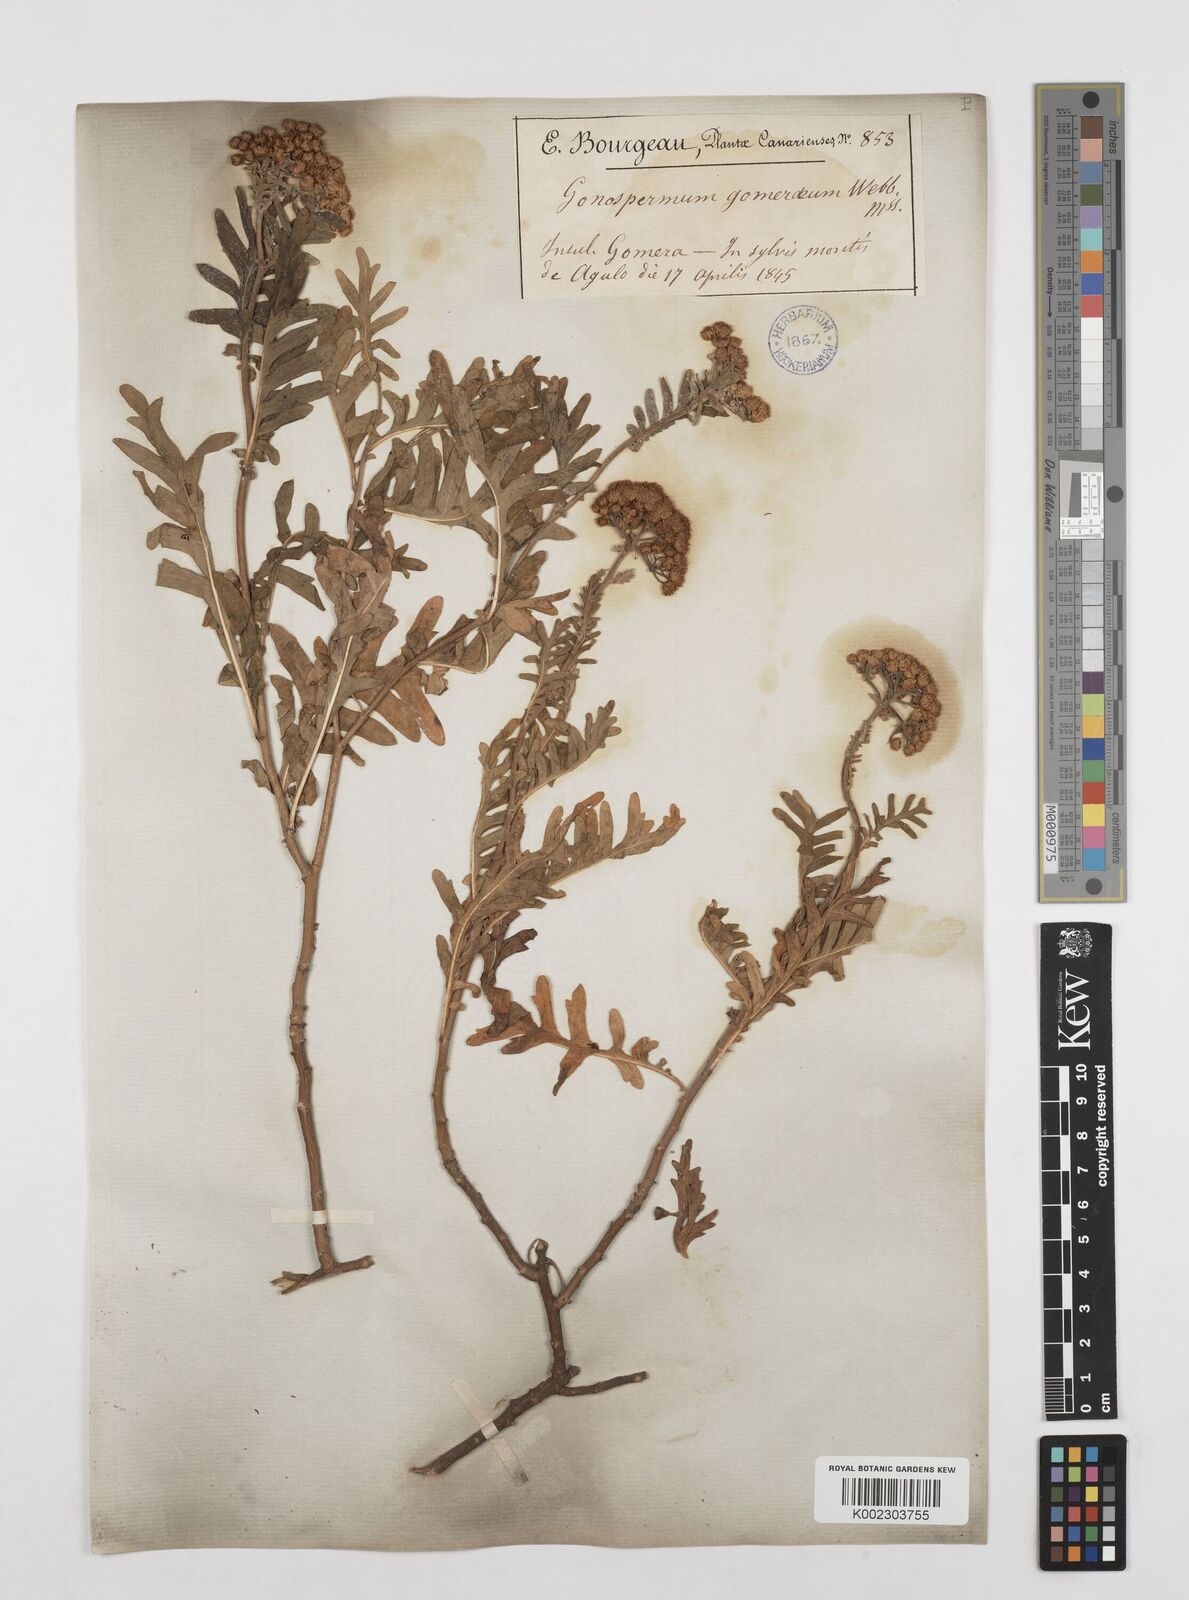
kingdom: Plantae
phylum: Tracheophyta
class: Magnoliopsida
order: Asterales
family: Asteraceae
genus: Gonospermum
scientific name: Gonospermum gomerae
